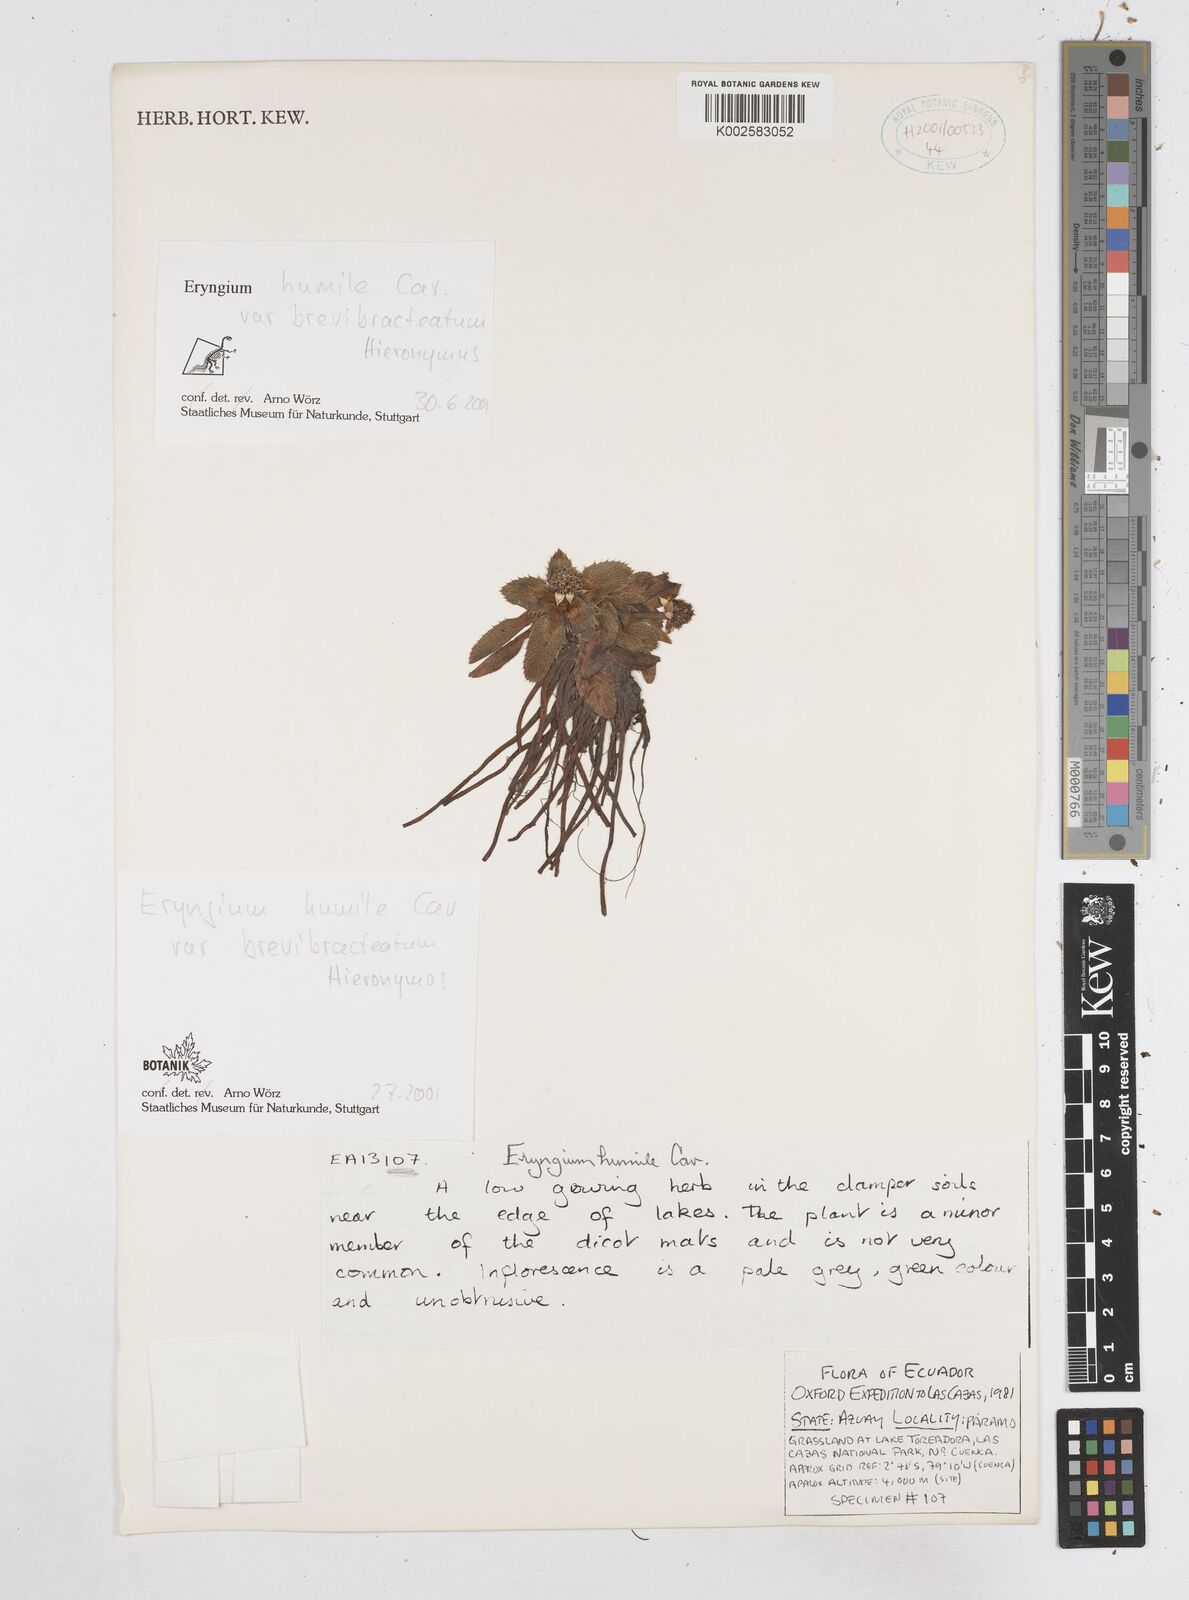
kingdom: Plantae
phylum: Tracheophyta
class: Magnoliopsida
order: Apiales
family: Apiaceae
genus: Eryngium
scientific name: Eryngium humile
